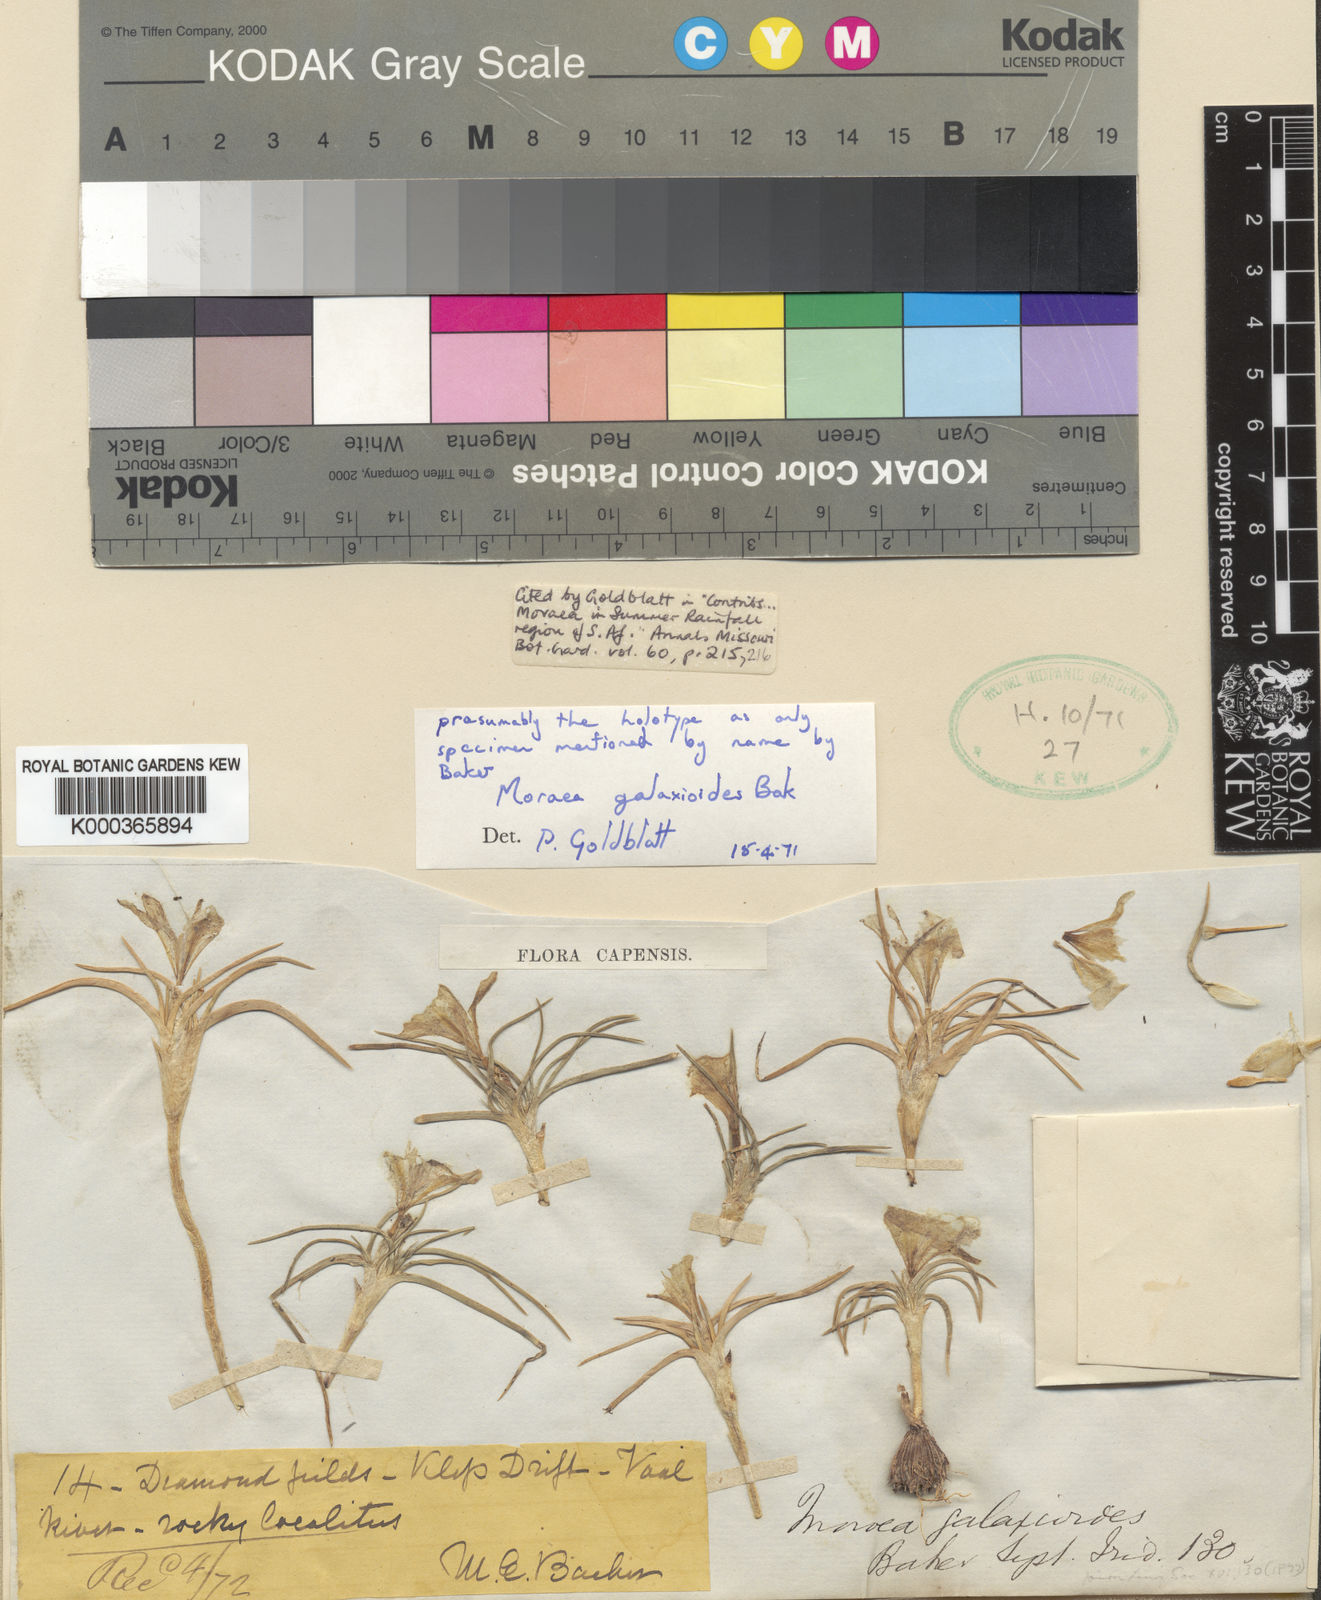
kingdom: Plantae
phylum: Tracheophyta
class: Liliopsida
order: Asparagales
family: Iridaceae
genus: Moraea
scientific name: Moraea falcifolia
